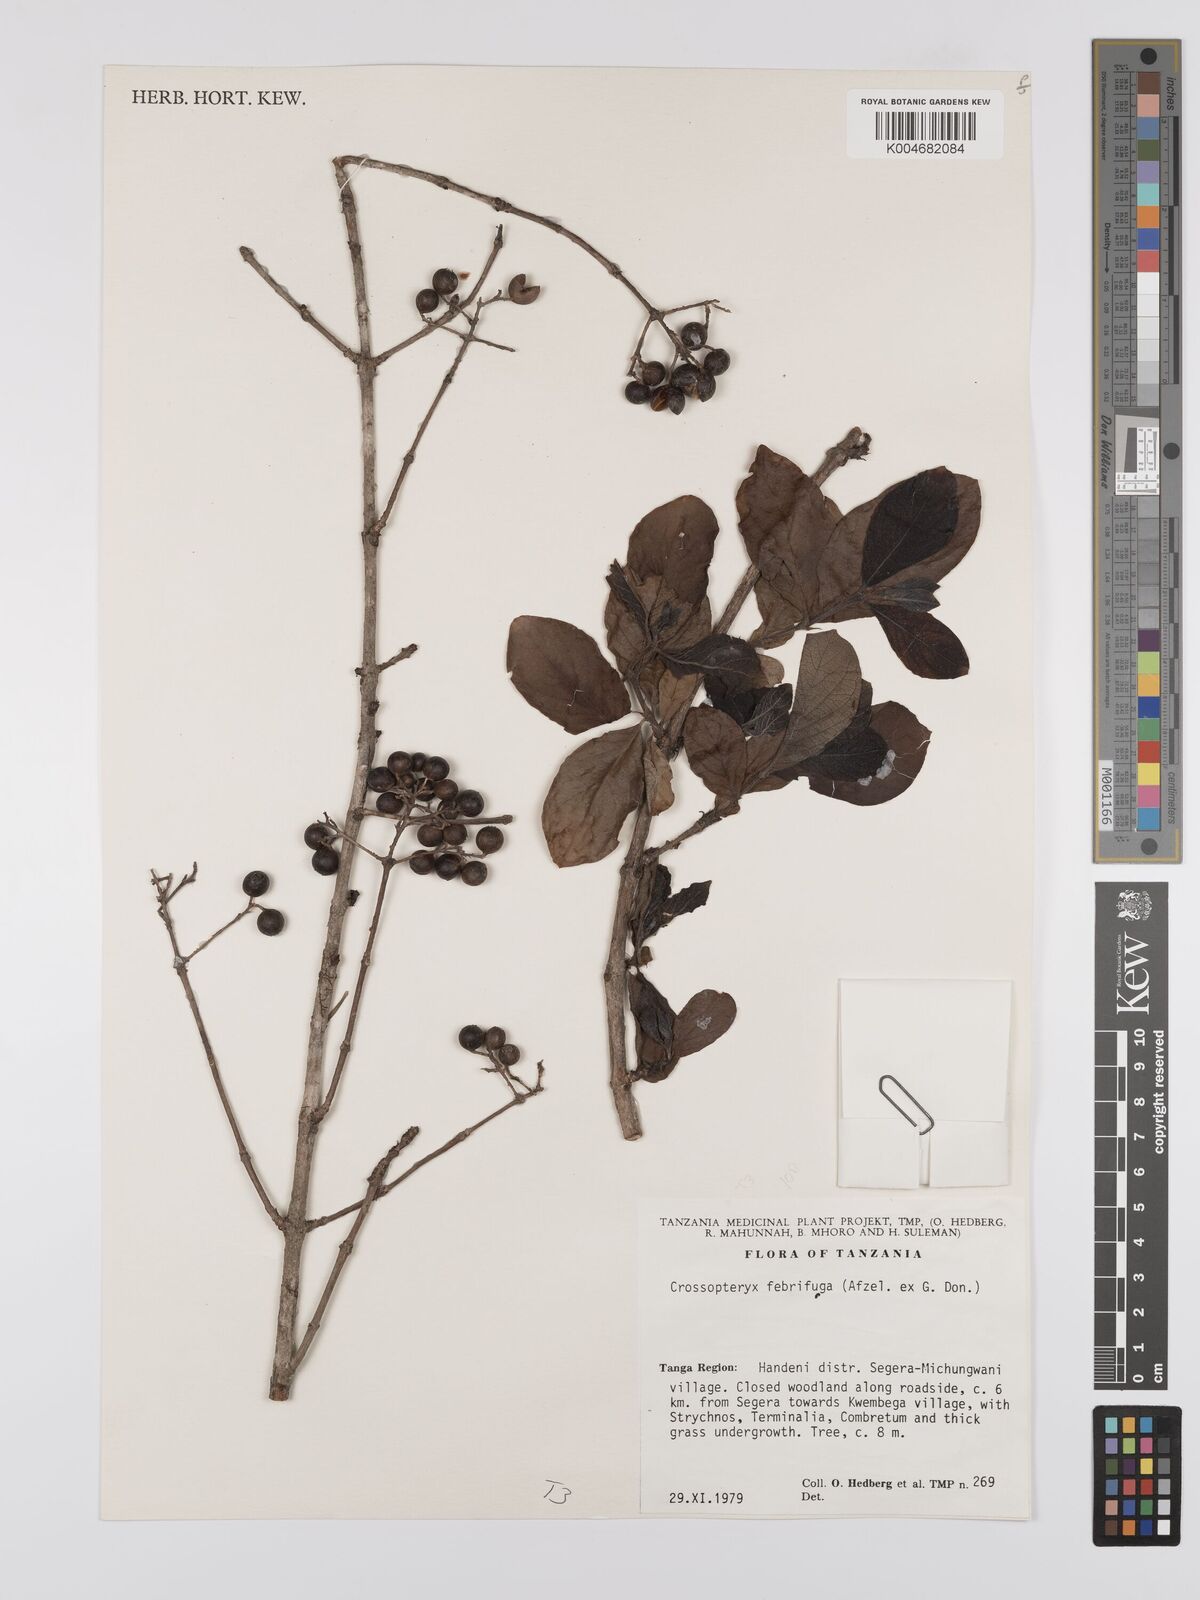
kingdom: Plantae
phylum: Tracheophyta
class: Magnoliopsida
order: Gentianales
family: Rubiaceae
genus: Crossopteryx
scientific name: Crossopteryx febrifuga
